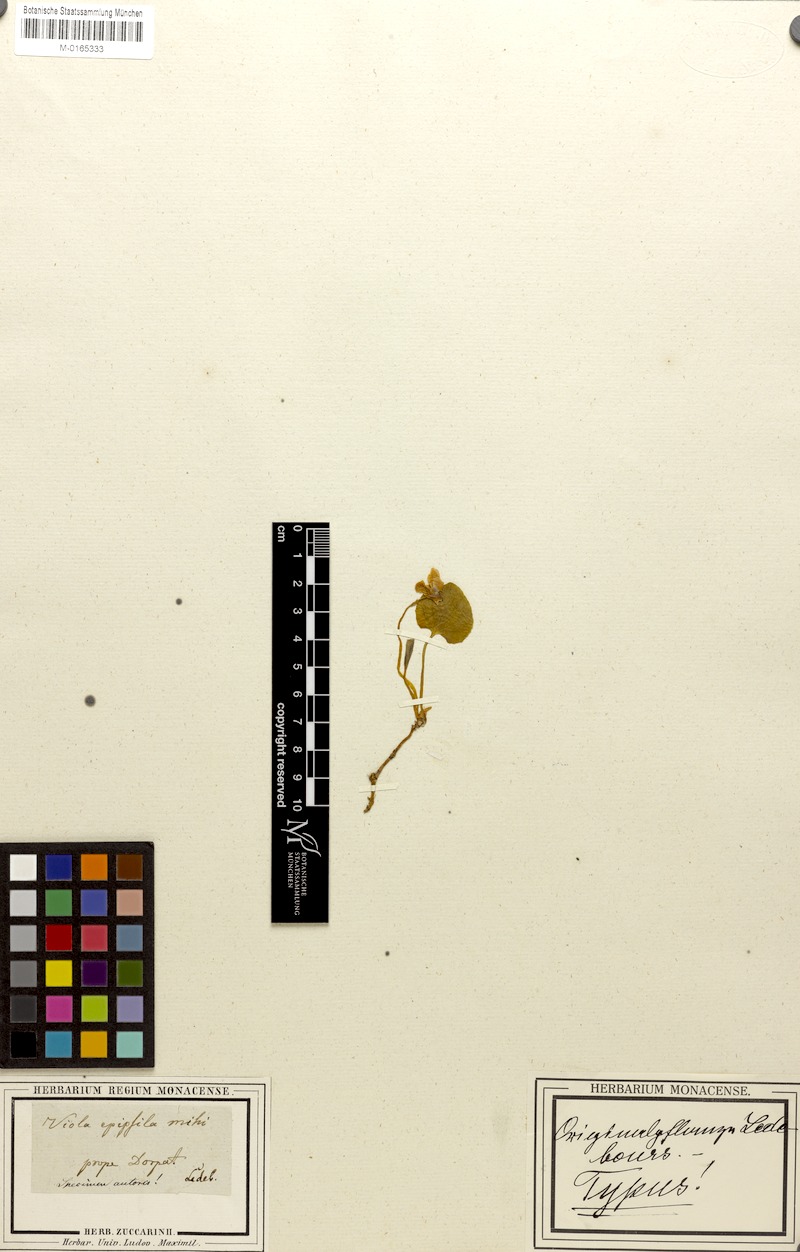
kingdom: Plantae
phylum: Tracheophyta
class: Magnoliopsida
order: Malpighiales
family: Violaceae
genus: Viola
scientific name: Viola epipsila
